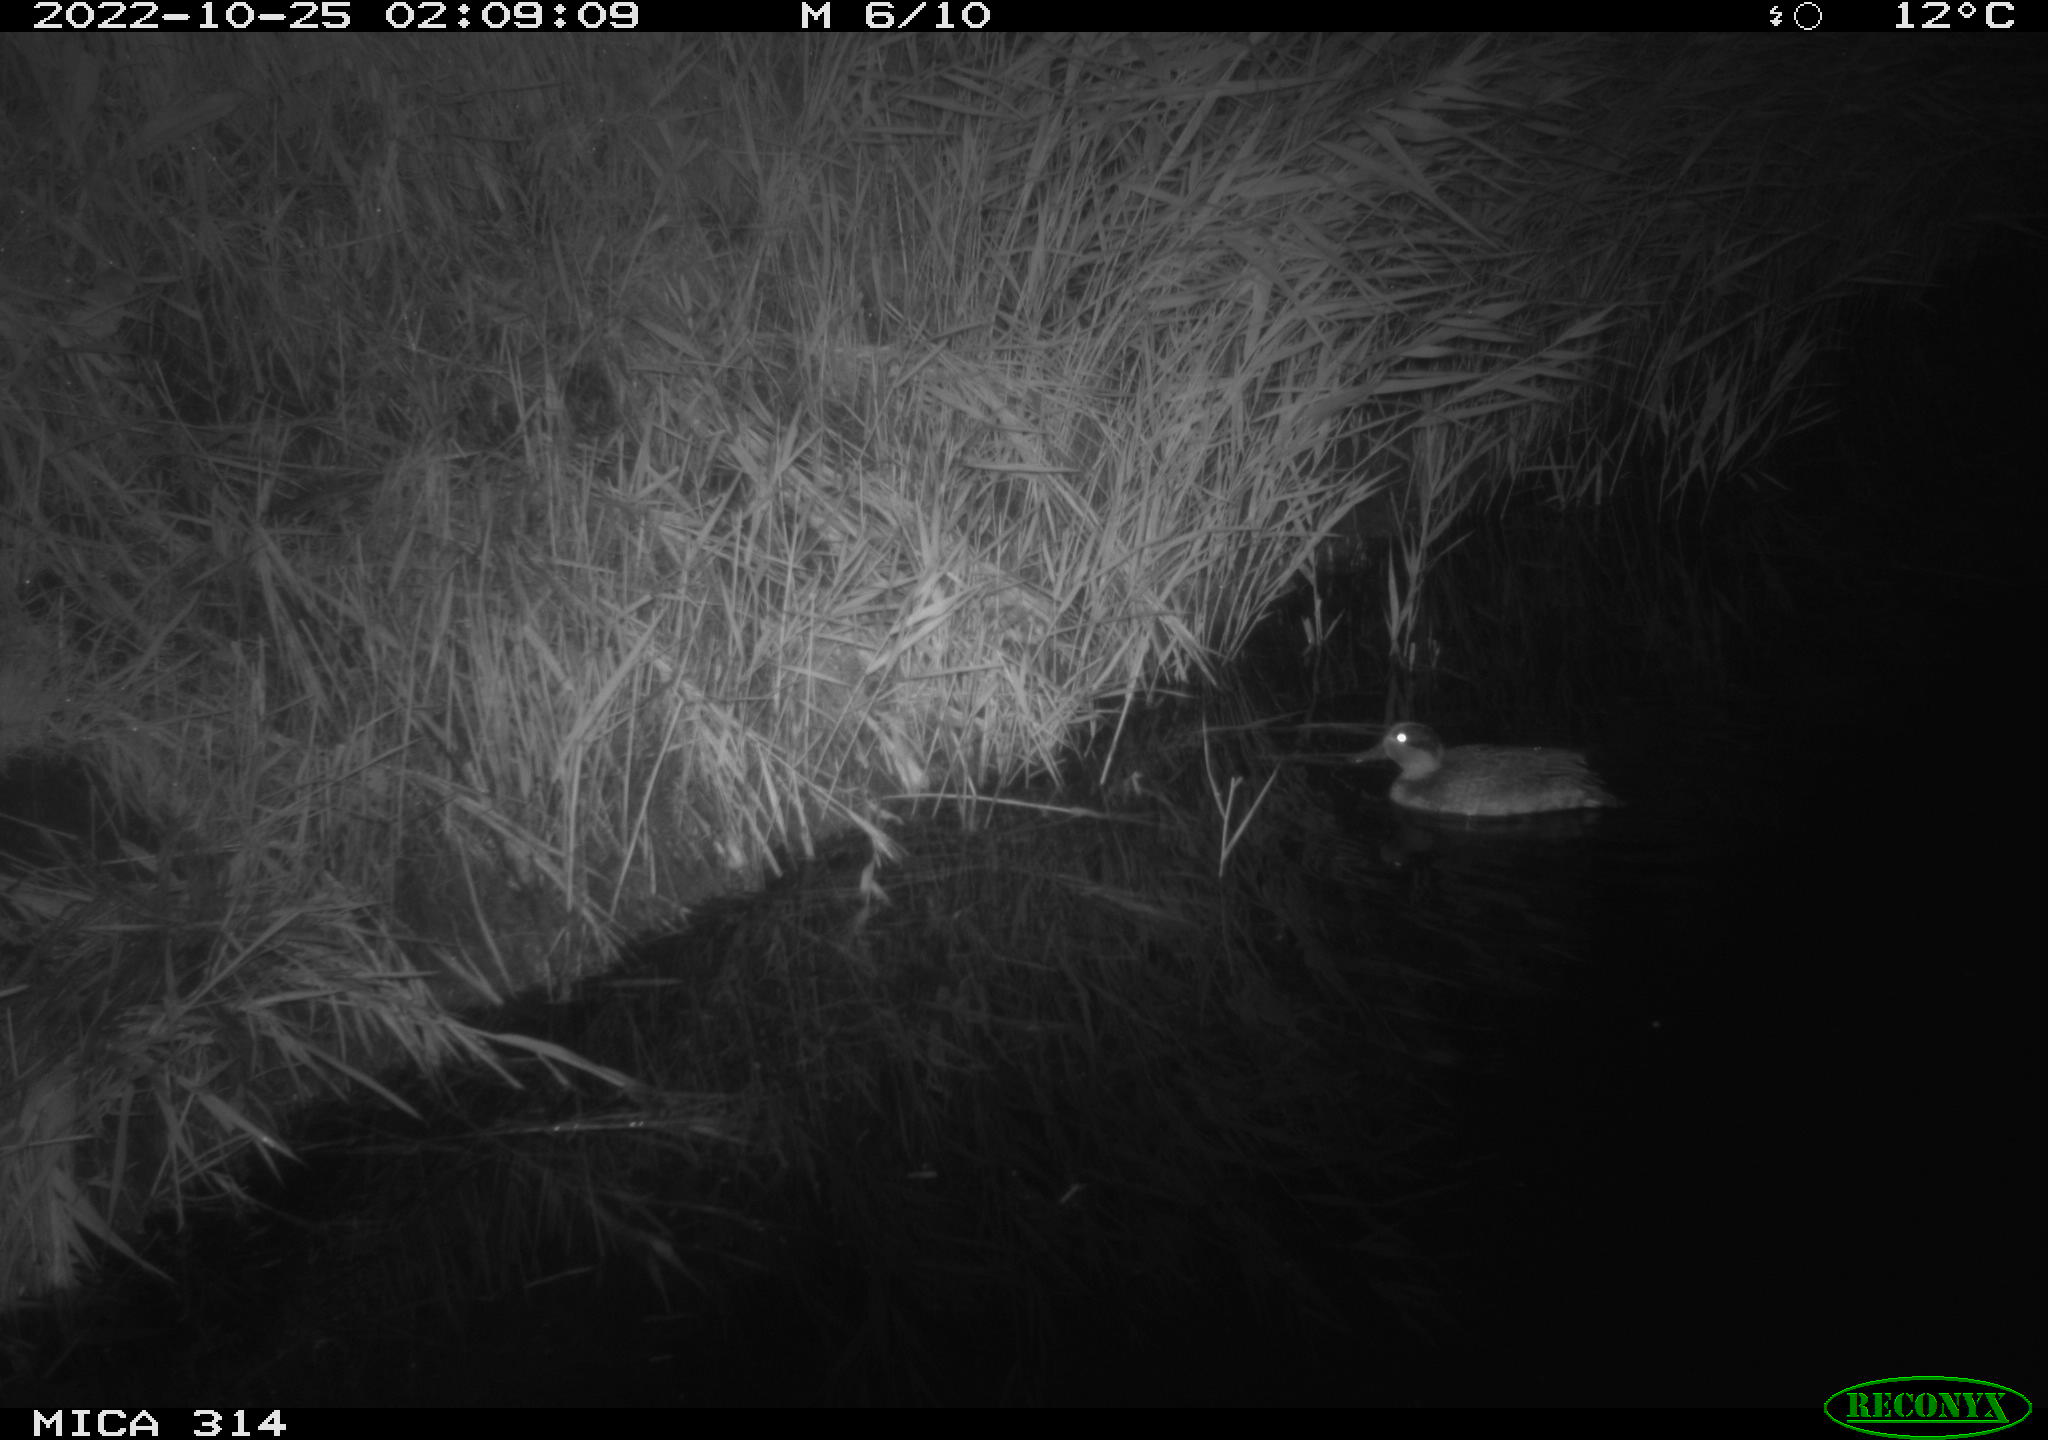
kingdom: Animalia
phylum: Chordata
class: Aves
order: Anseriformes
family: Anatidae
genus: Anas
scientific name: Anas
